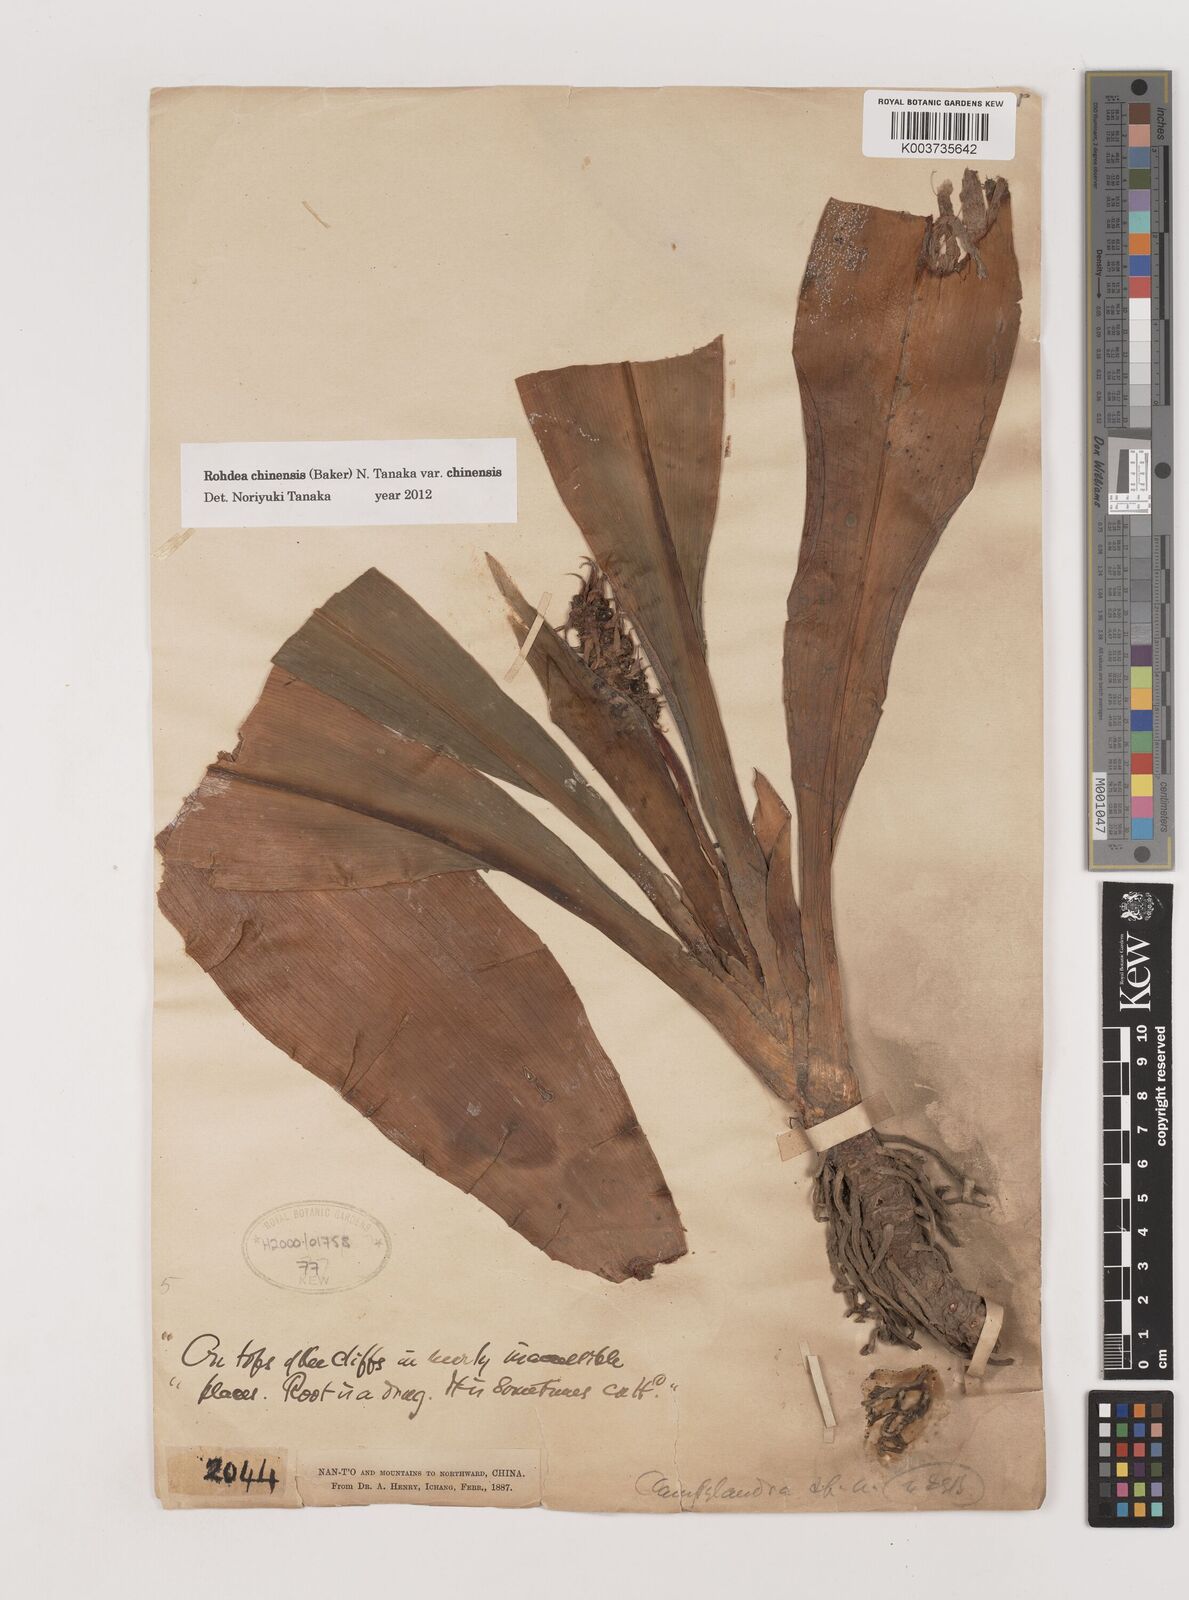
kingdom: Plantae
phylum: Tracheophyta
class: Liliopsida
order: Asparagales
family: Asparagaceae
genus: Rohdea
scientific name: Rohdea fargesii
